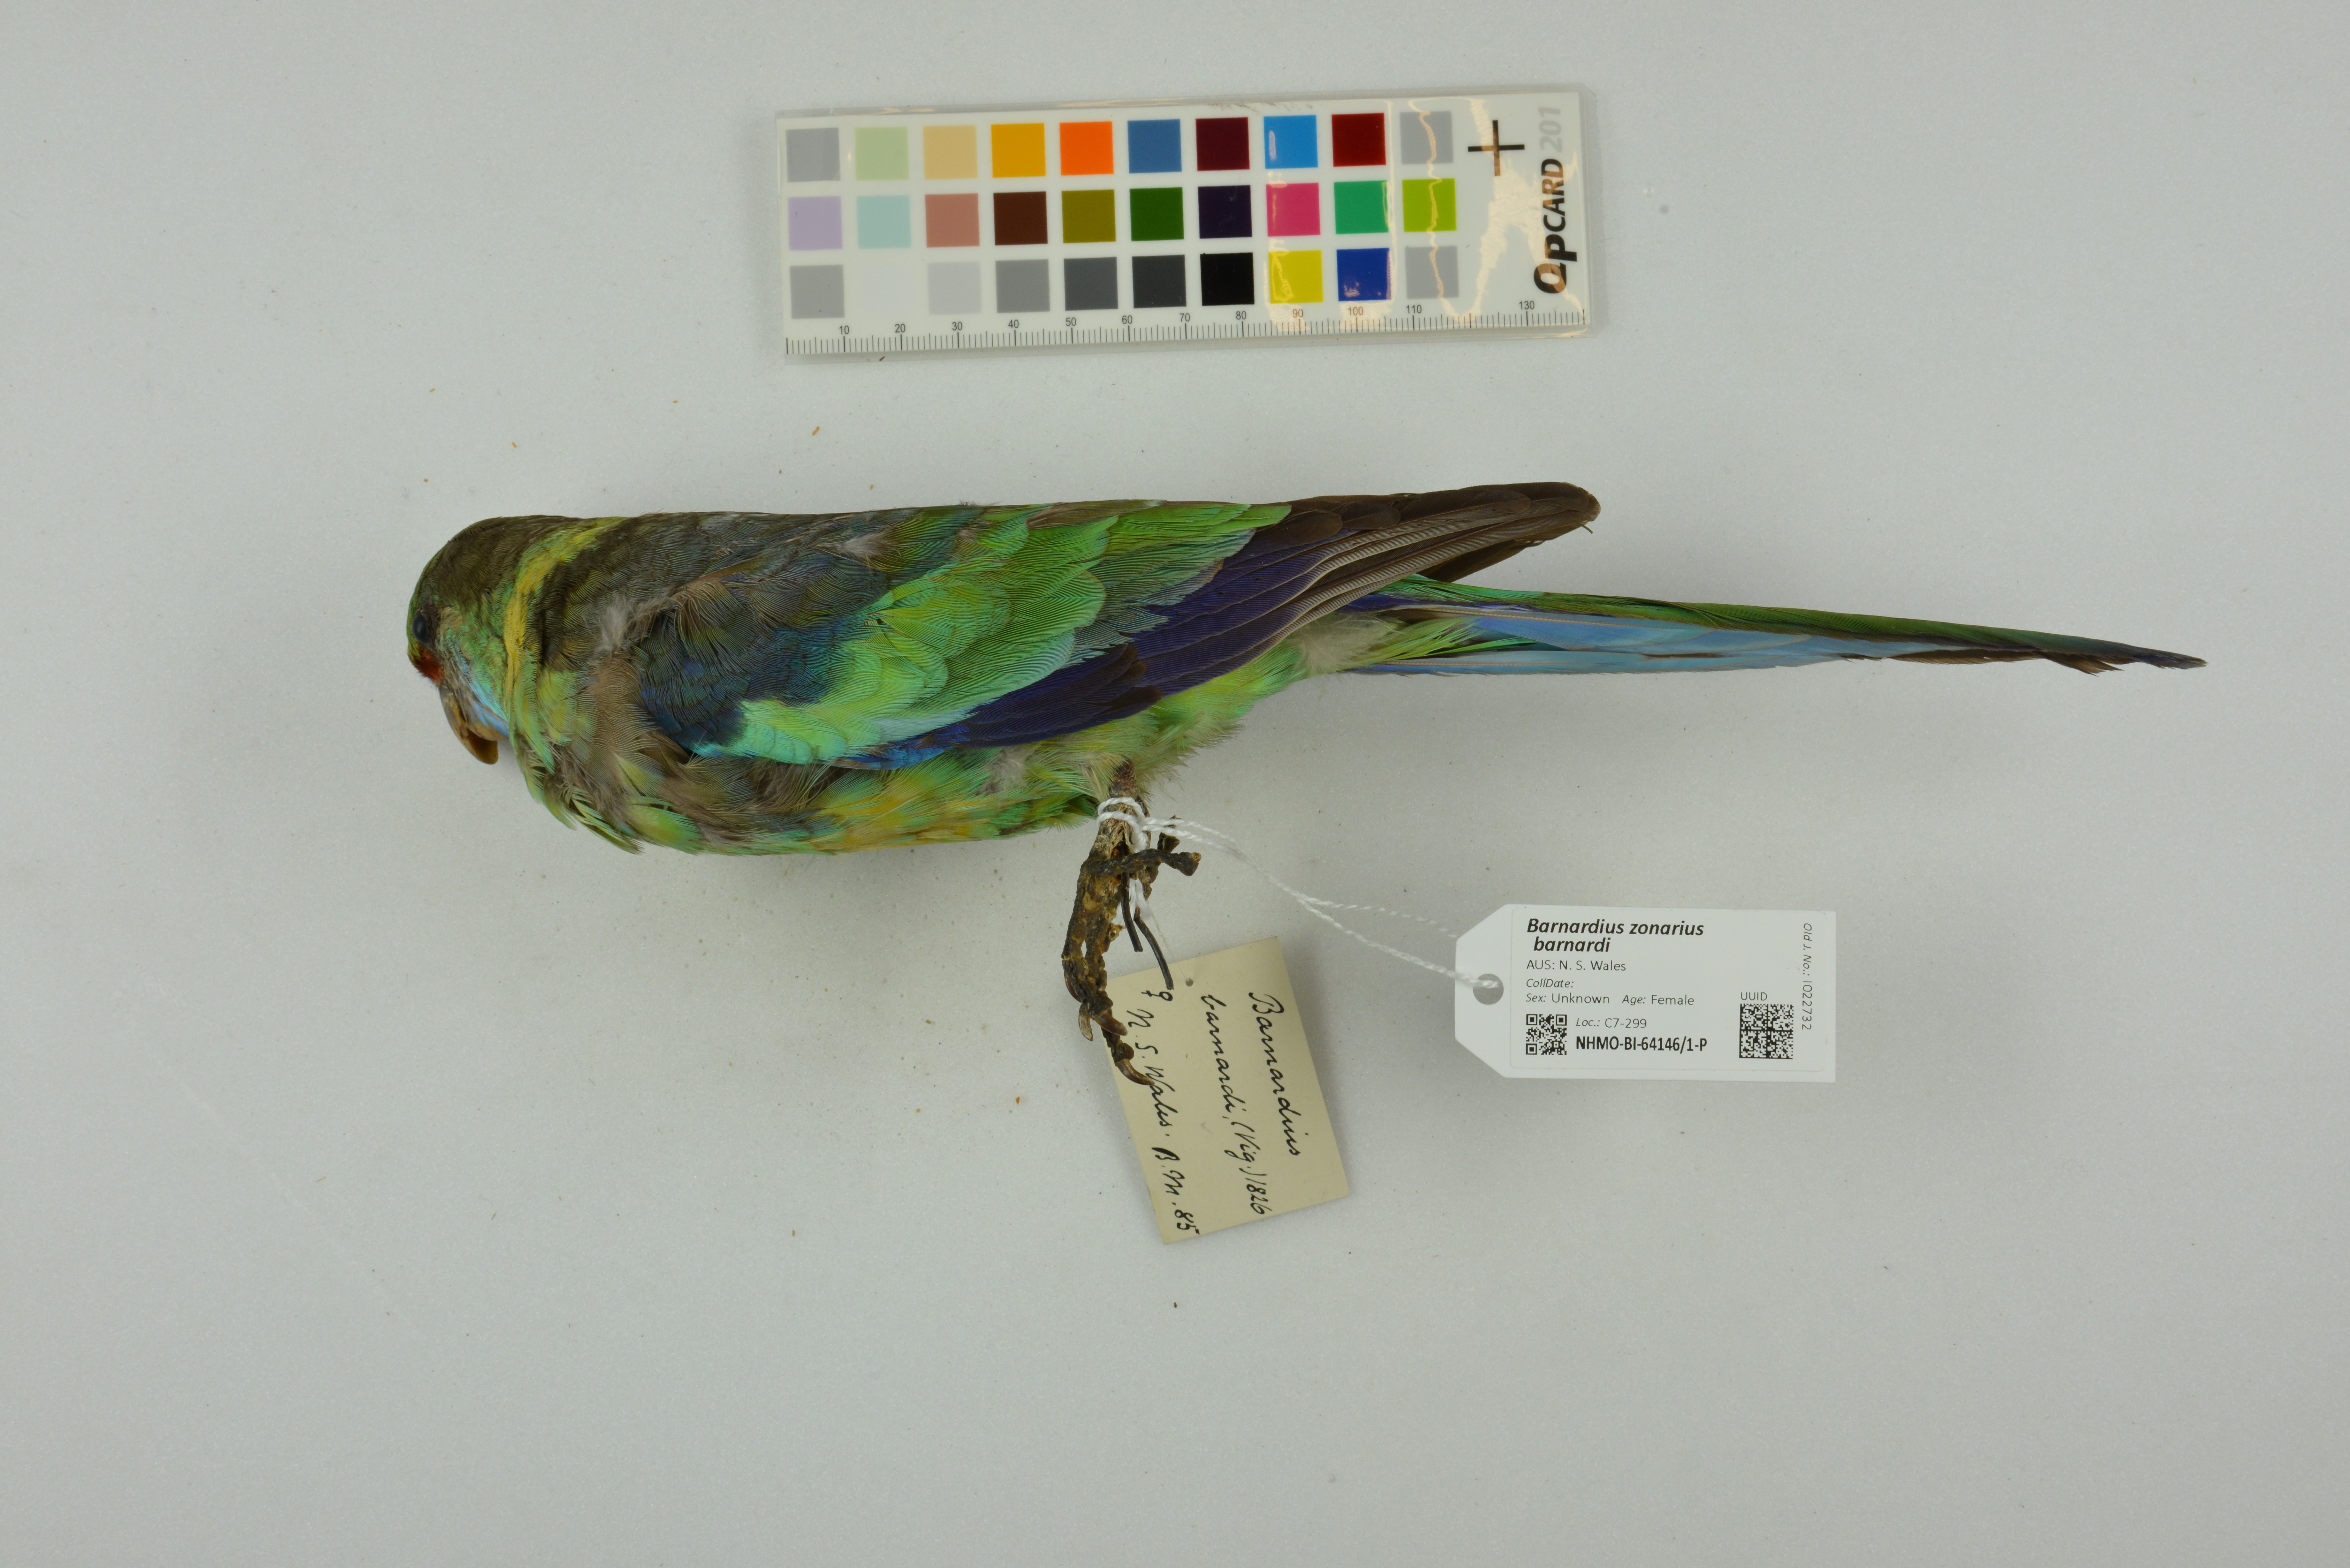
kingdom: Animalia
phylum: Chordata
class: Aves
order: Psittaciformes
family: Psittacidae
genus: Barnardius
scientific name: Barnardius zonarius
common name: Australian ringneck
